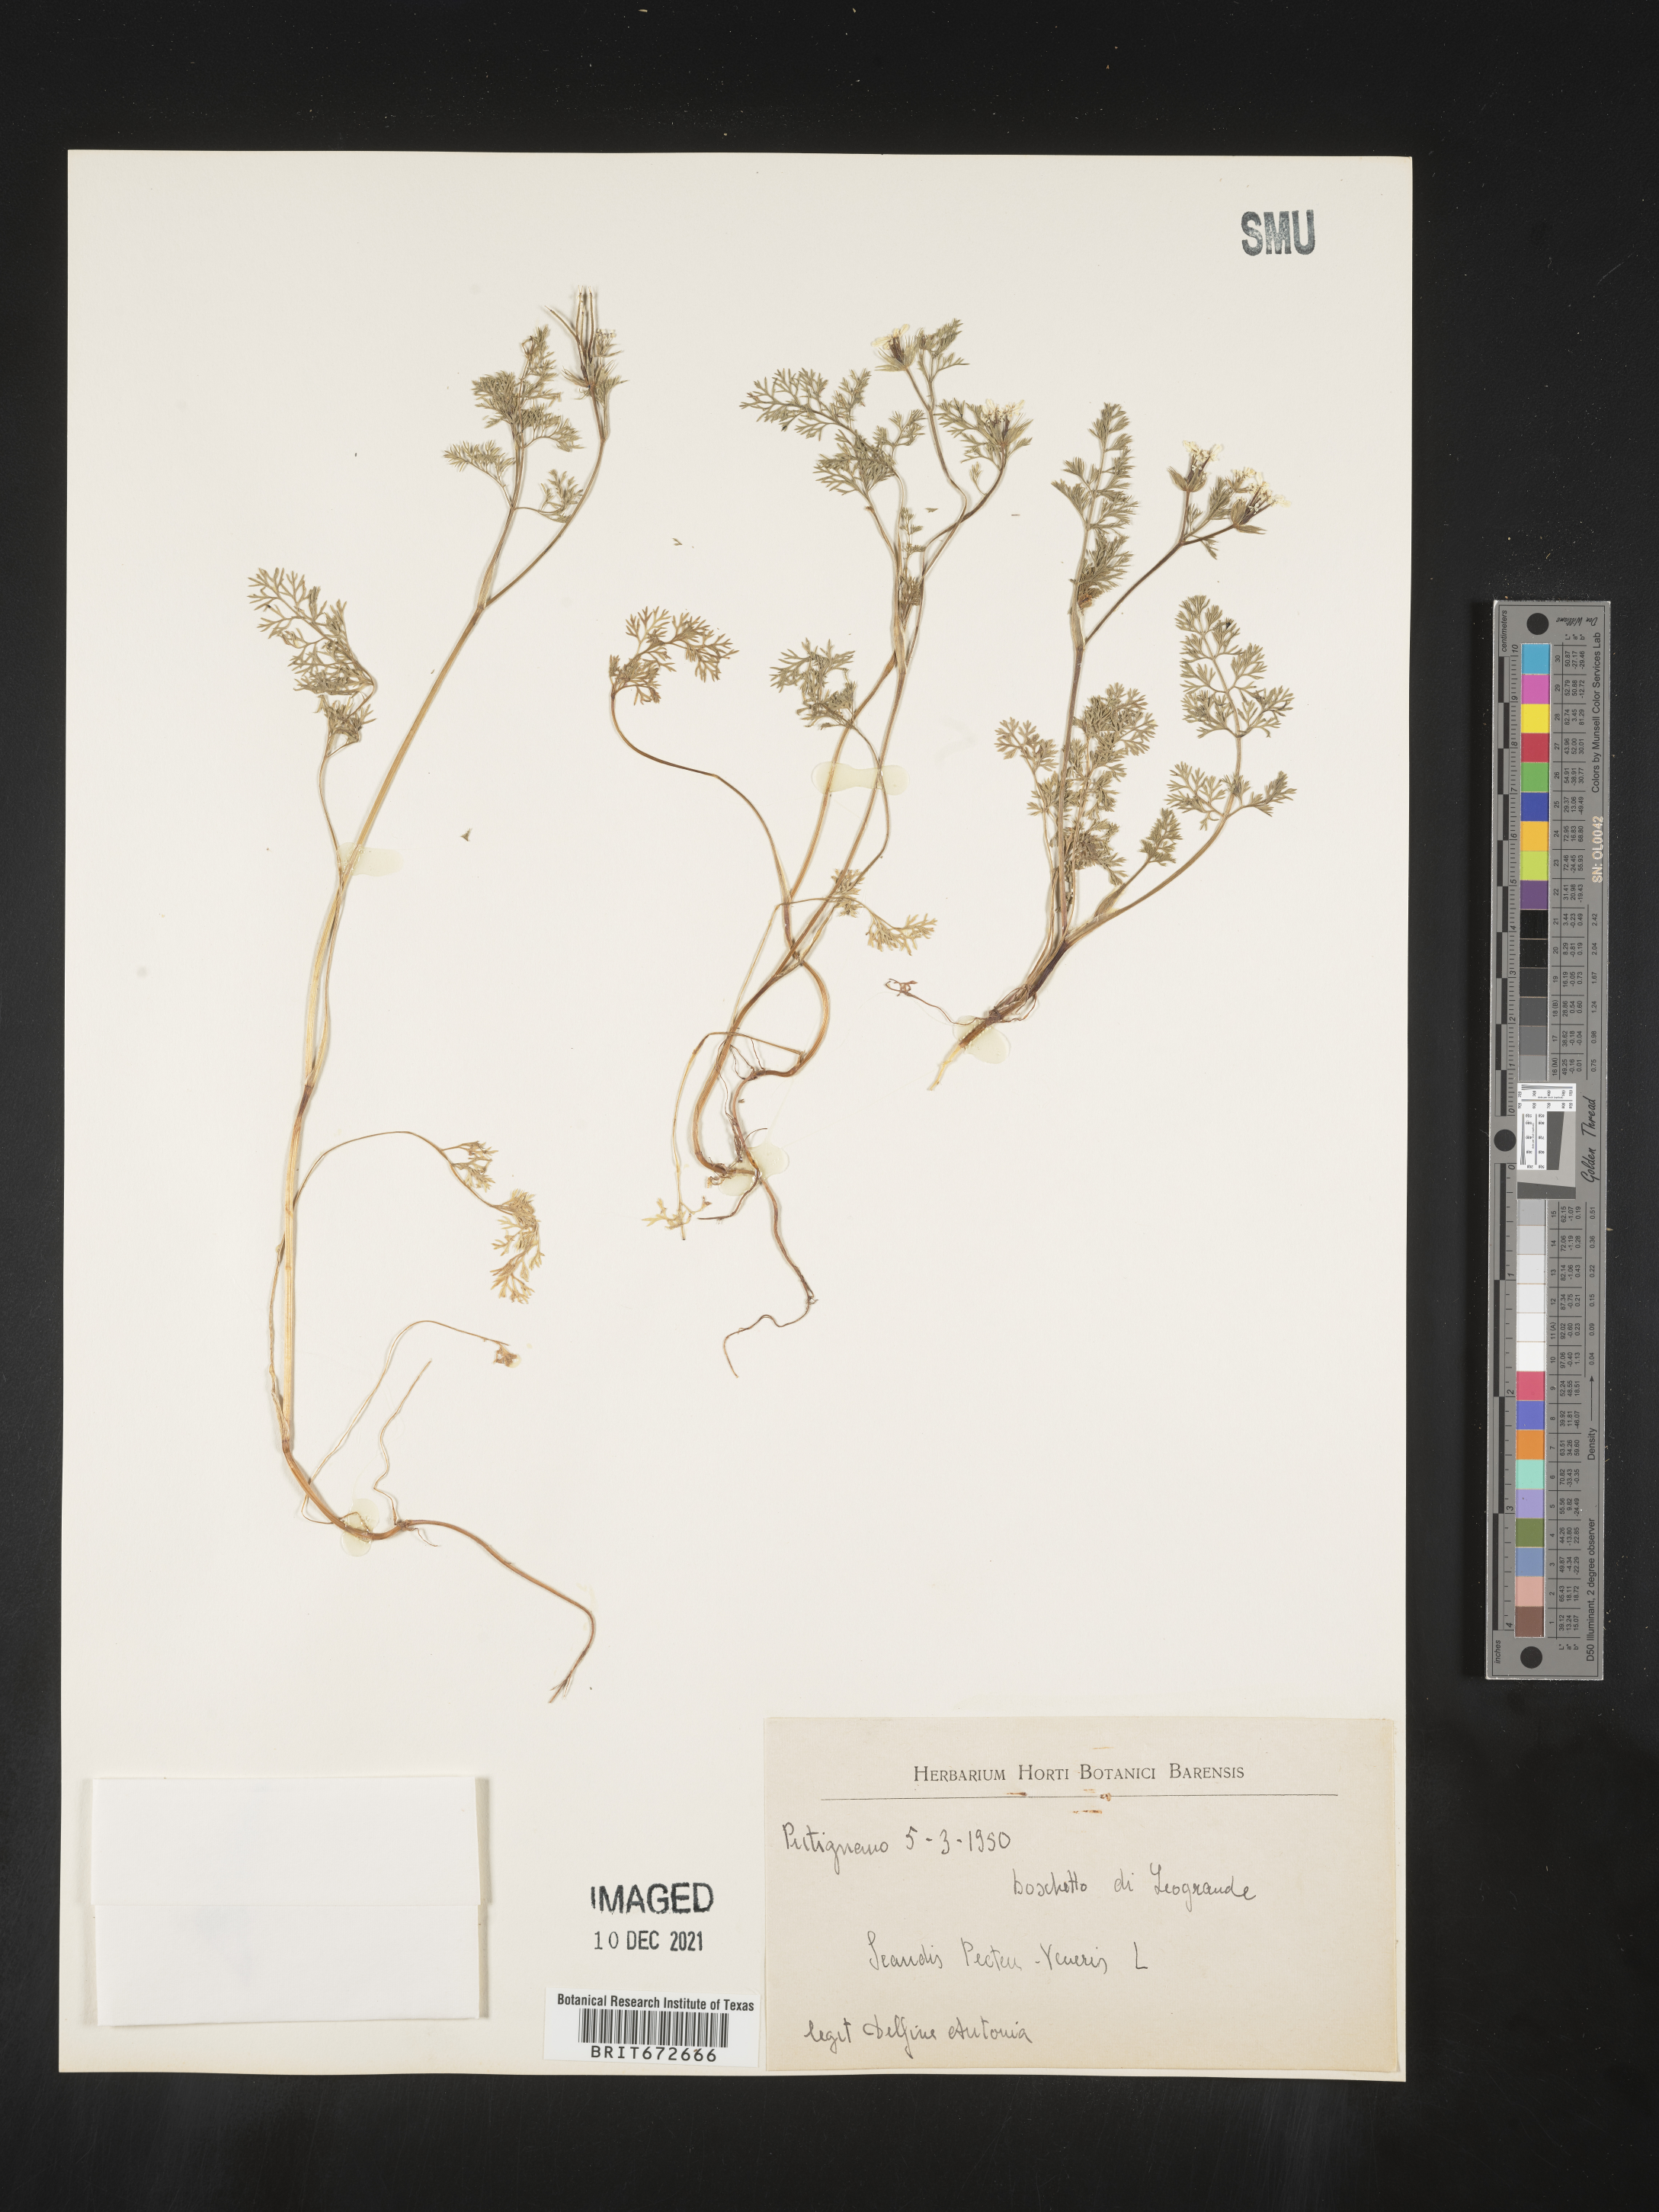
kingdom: Plantae
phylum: Tracheophyta
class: Magnoliopsida
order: Apiales
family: Apiaceae
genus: Scandix
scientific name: Scandix
